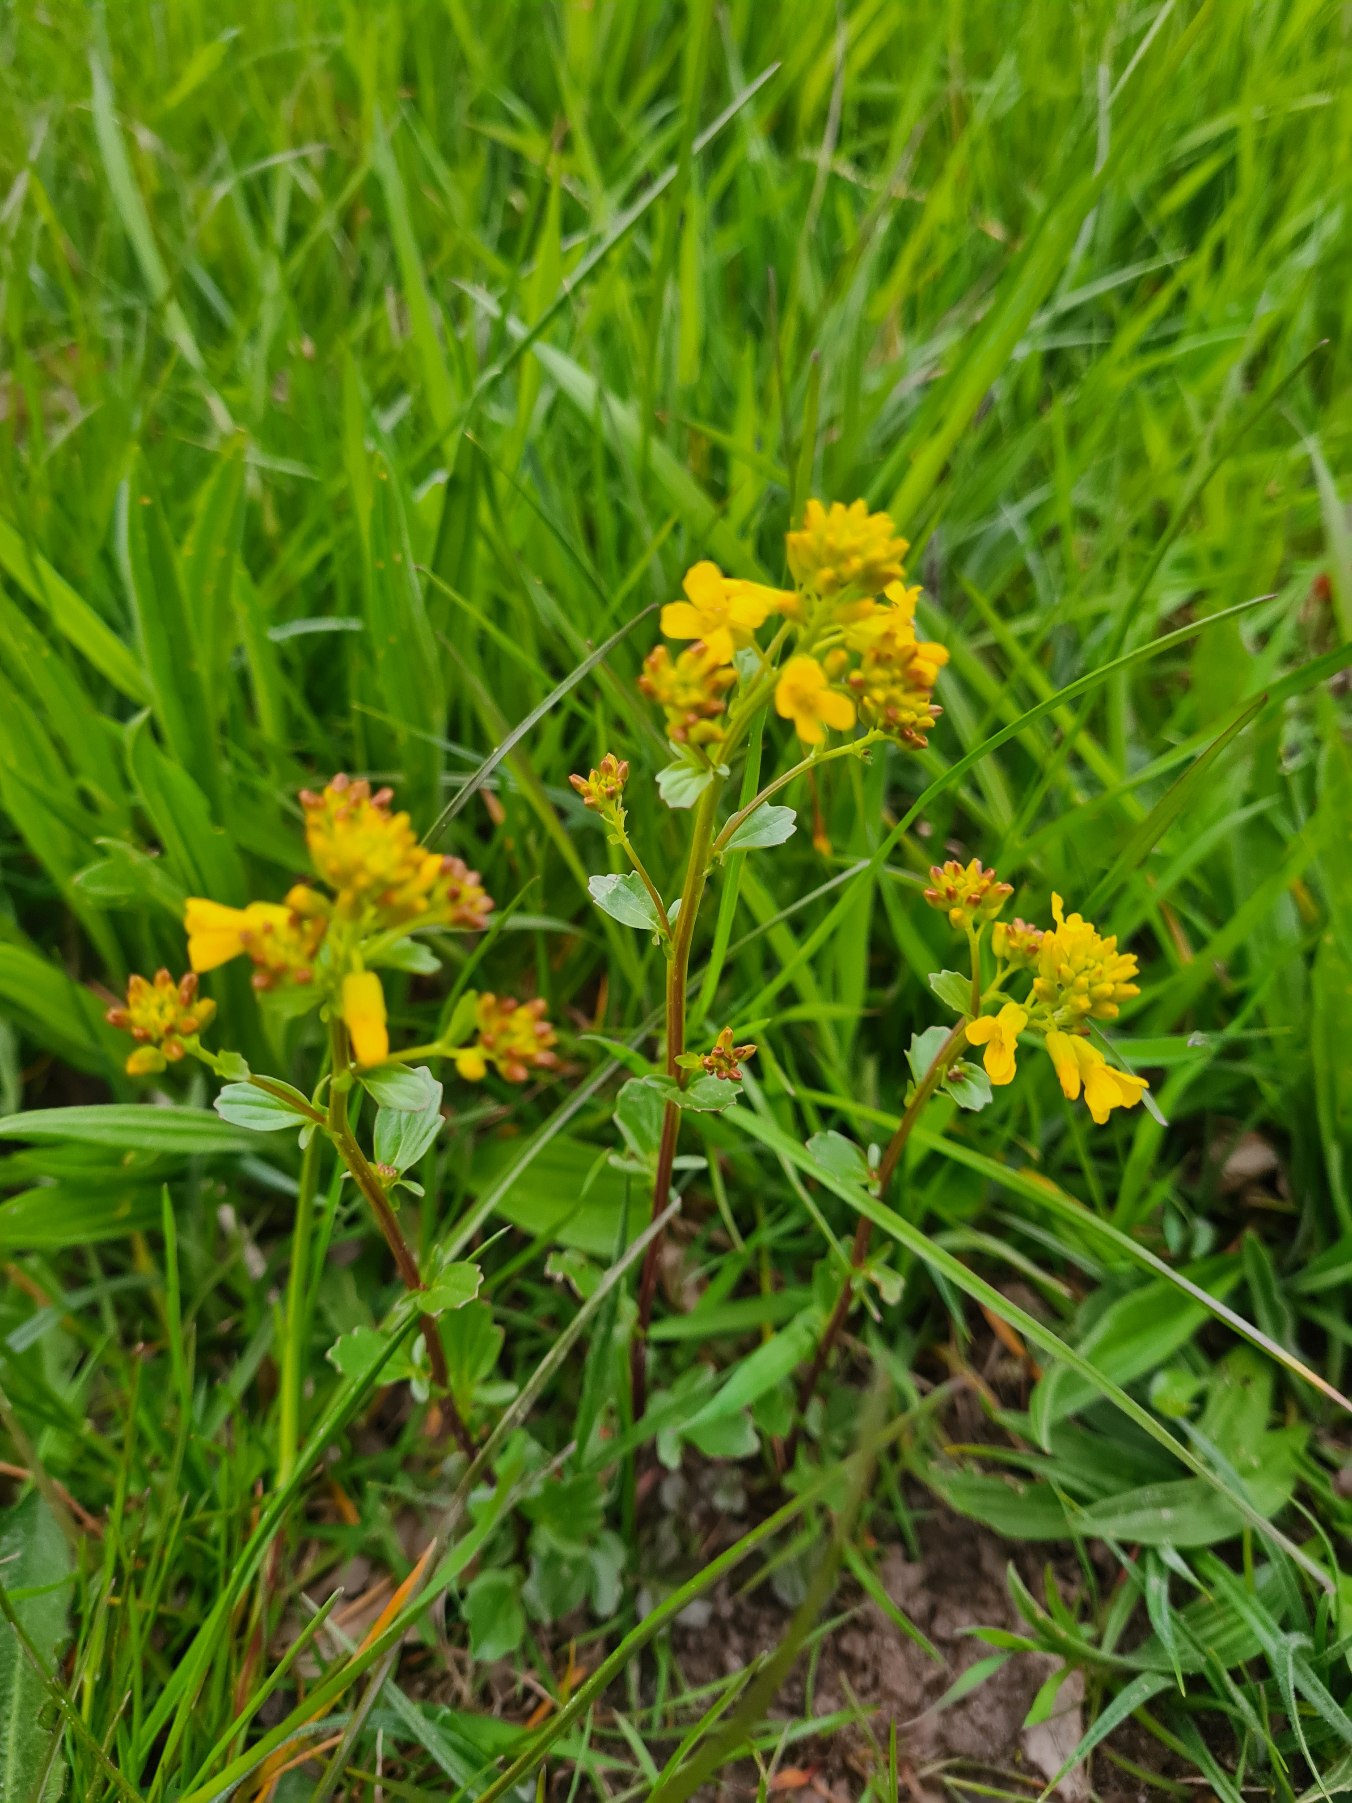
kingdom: Plantae
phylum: Tracheophyta
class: Magnoliopsida
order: Brassicales
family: Brassicaceae
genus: Barbarea
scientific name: Barbarea vulgaris
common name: Almindelig vinterkarse
